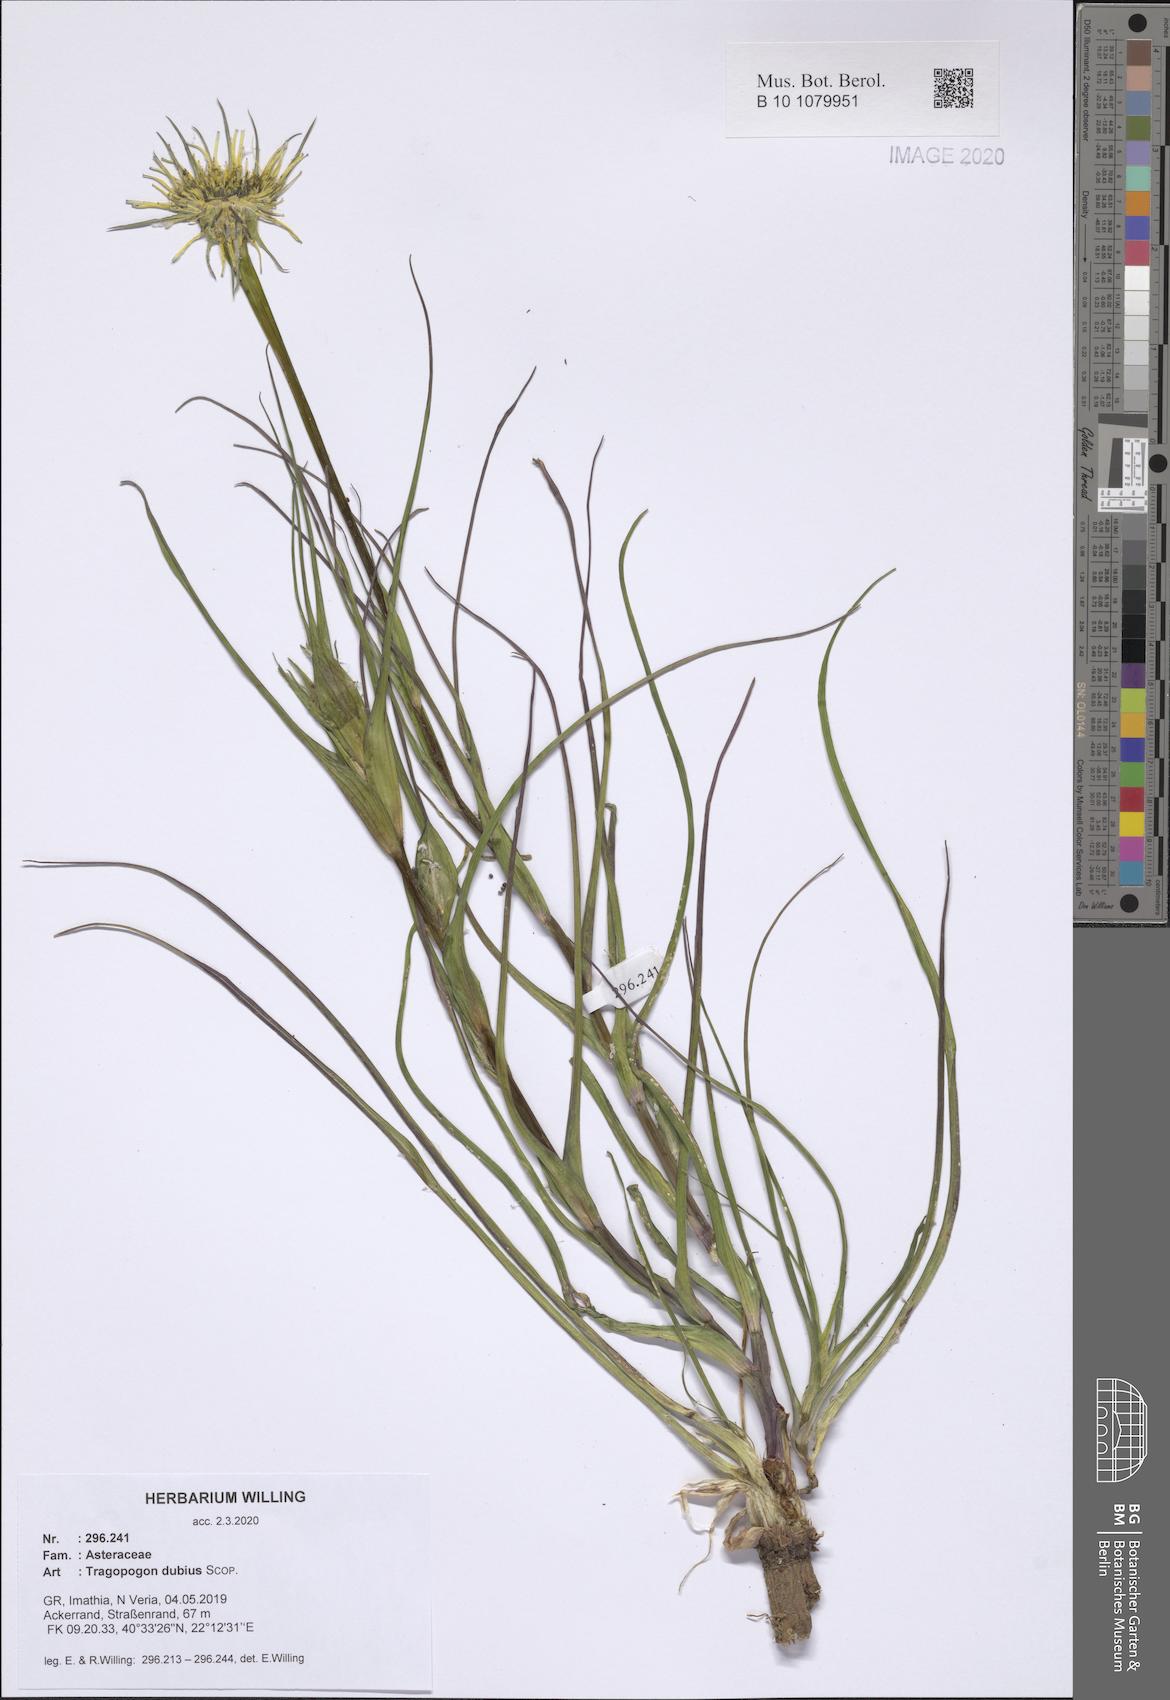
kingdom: Plantae
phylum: Tracheophyta
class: Magnoliopsida
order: Asterales
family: Asteraceae
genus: Tragopogon
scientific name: Tragopogon dubius
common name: Yellow salsify
